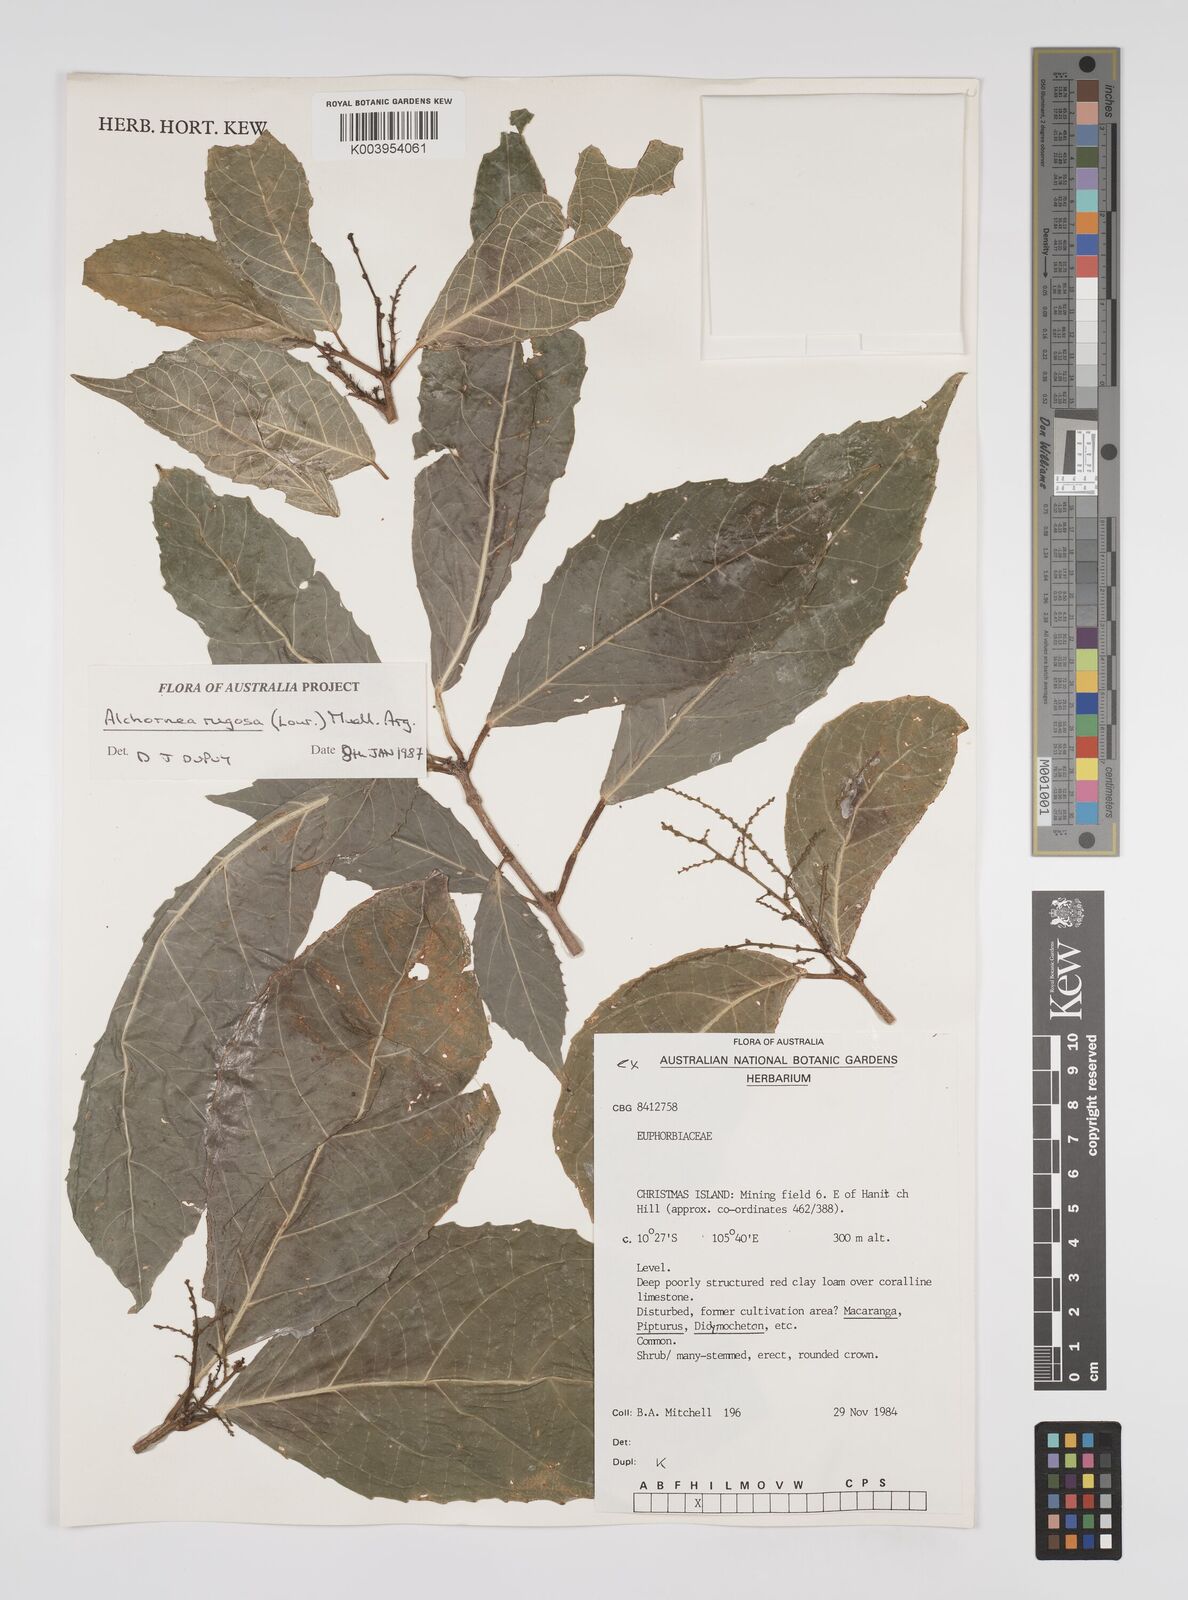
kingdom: Plantae
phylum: Tracheophyta
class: Magnoliopsida
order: Malpighiales
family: Euphorbiaceae
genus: Alchornea
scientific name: Alchornea rugosa
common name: Alchorntree
